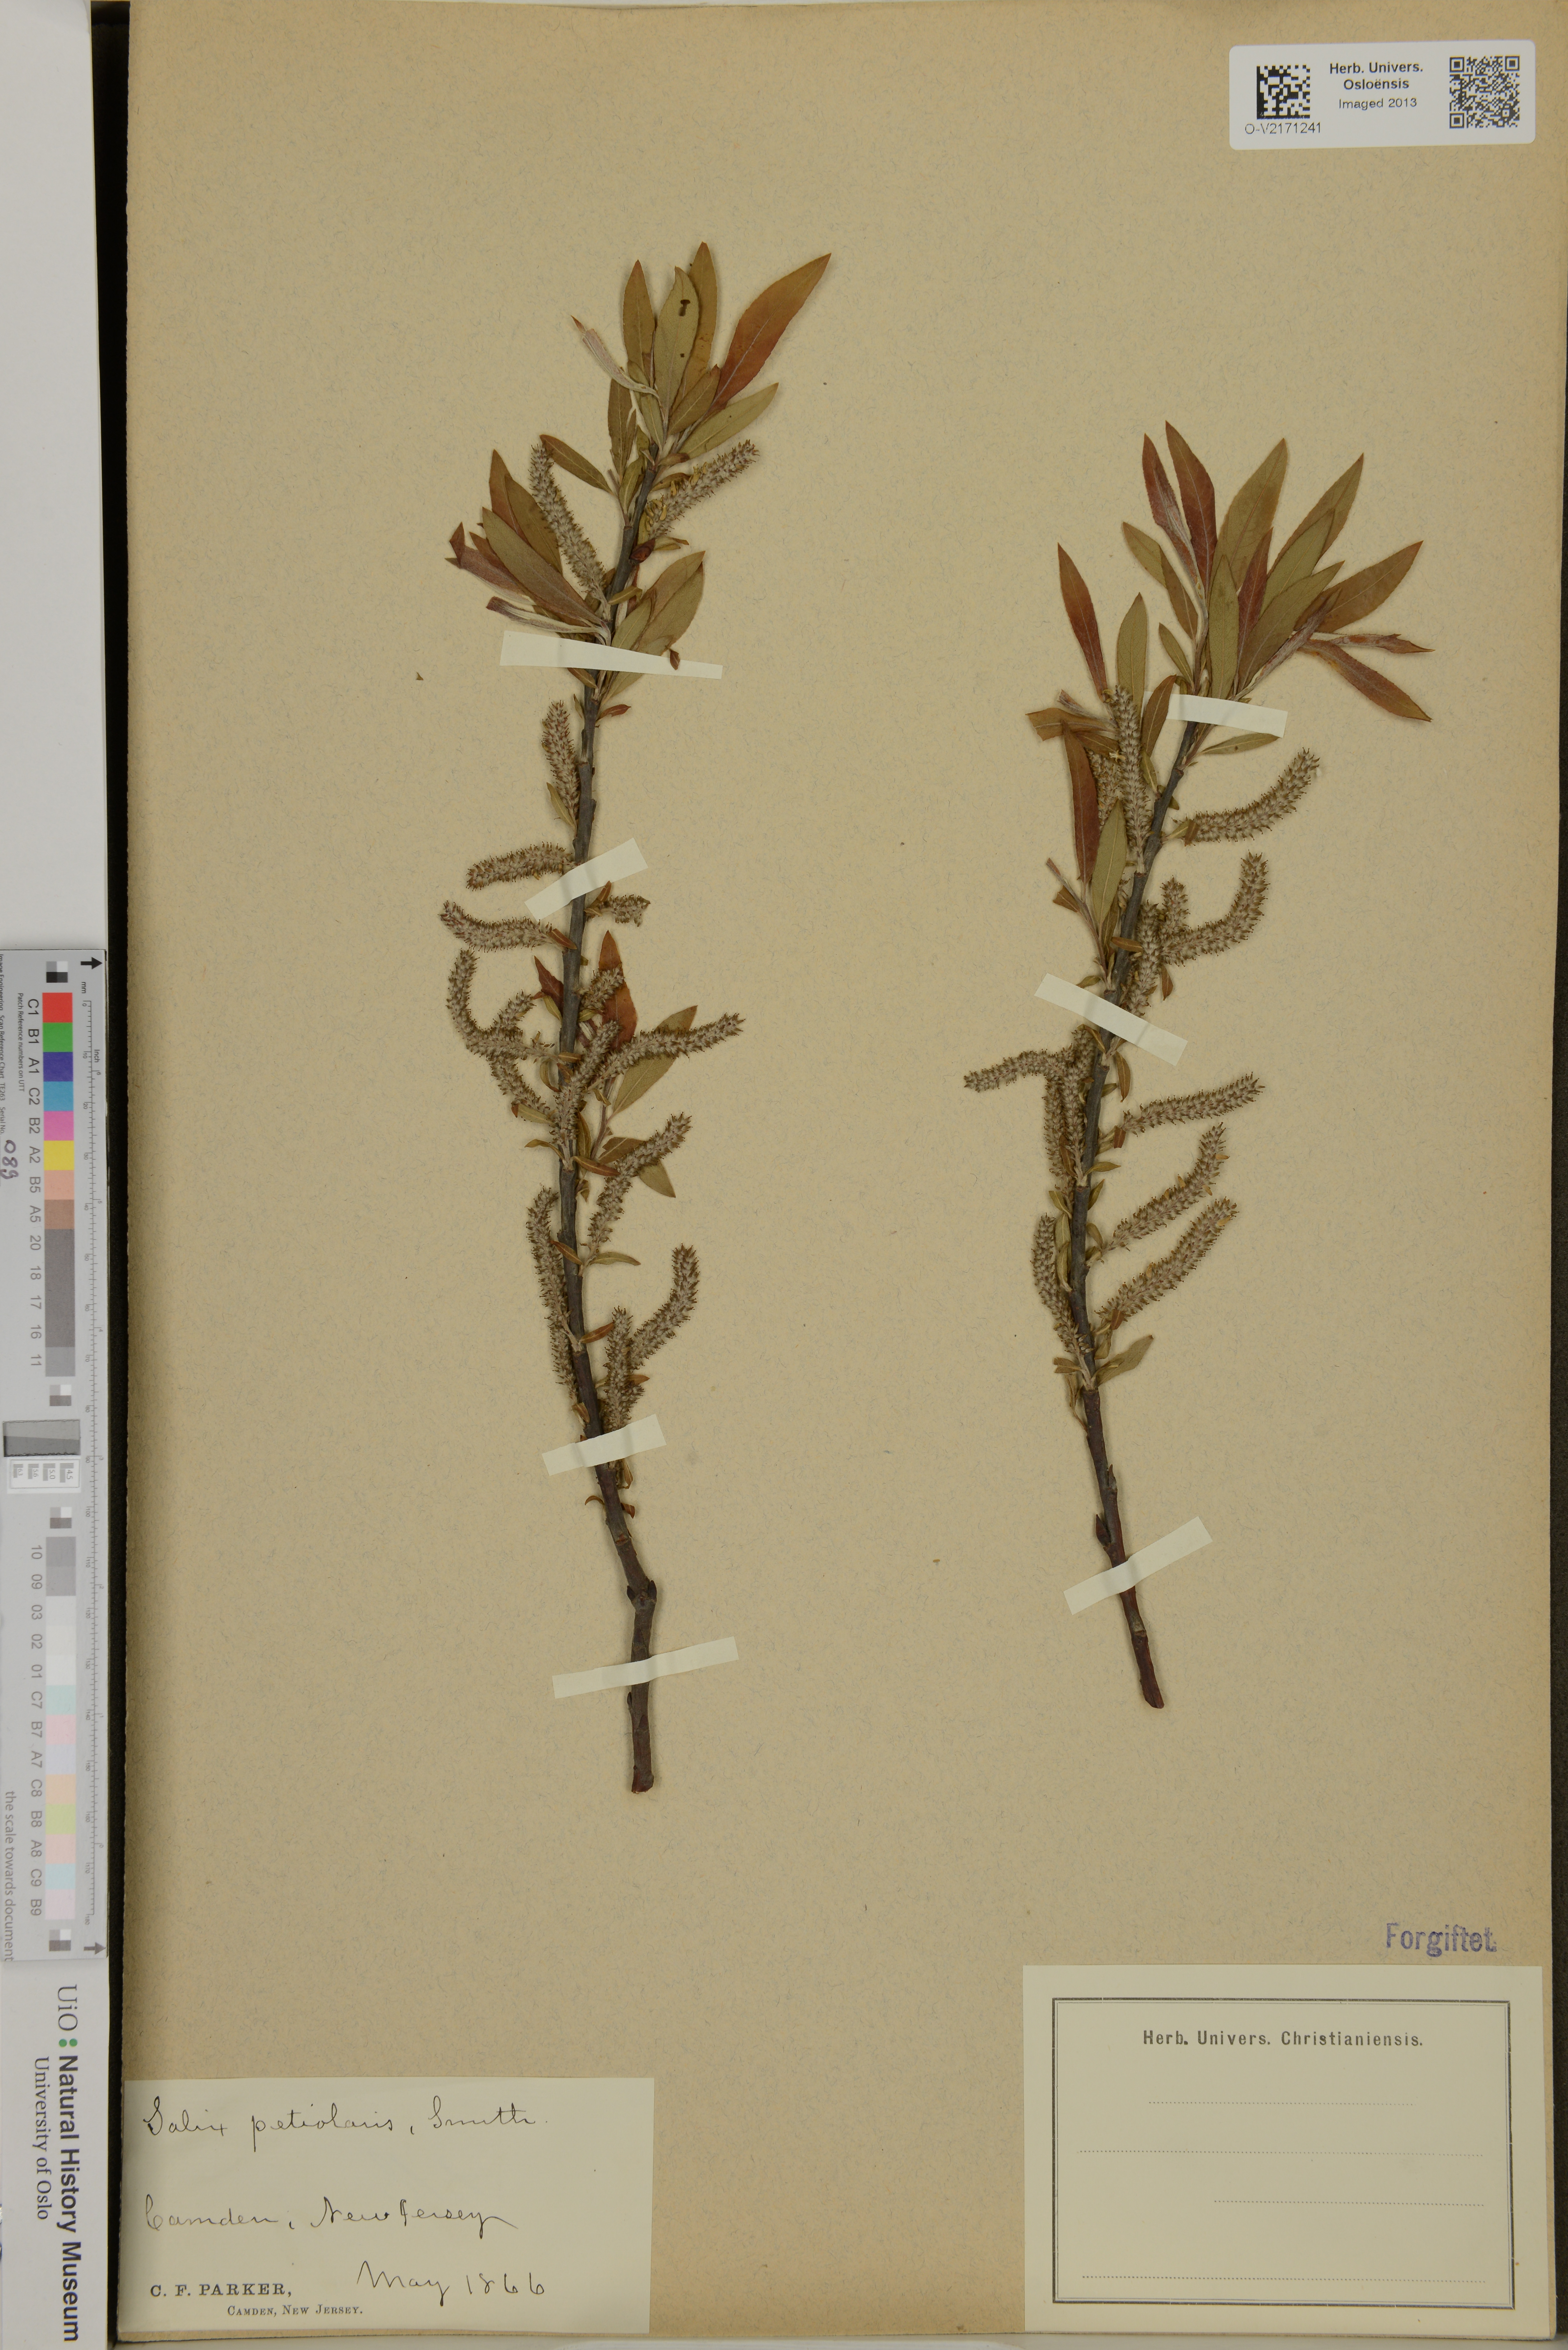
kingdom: Plantae
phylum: Tracheophyta
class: Magnoliopsida
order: Malpighiales
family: Salicaceae
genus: Salix
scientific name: Salix petiolaris
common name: Slender willow
